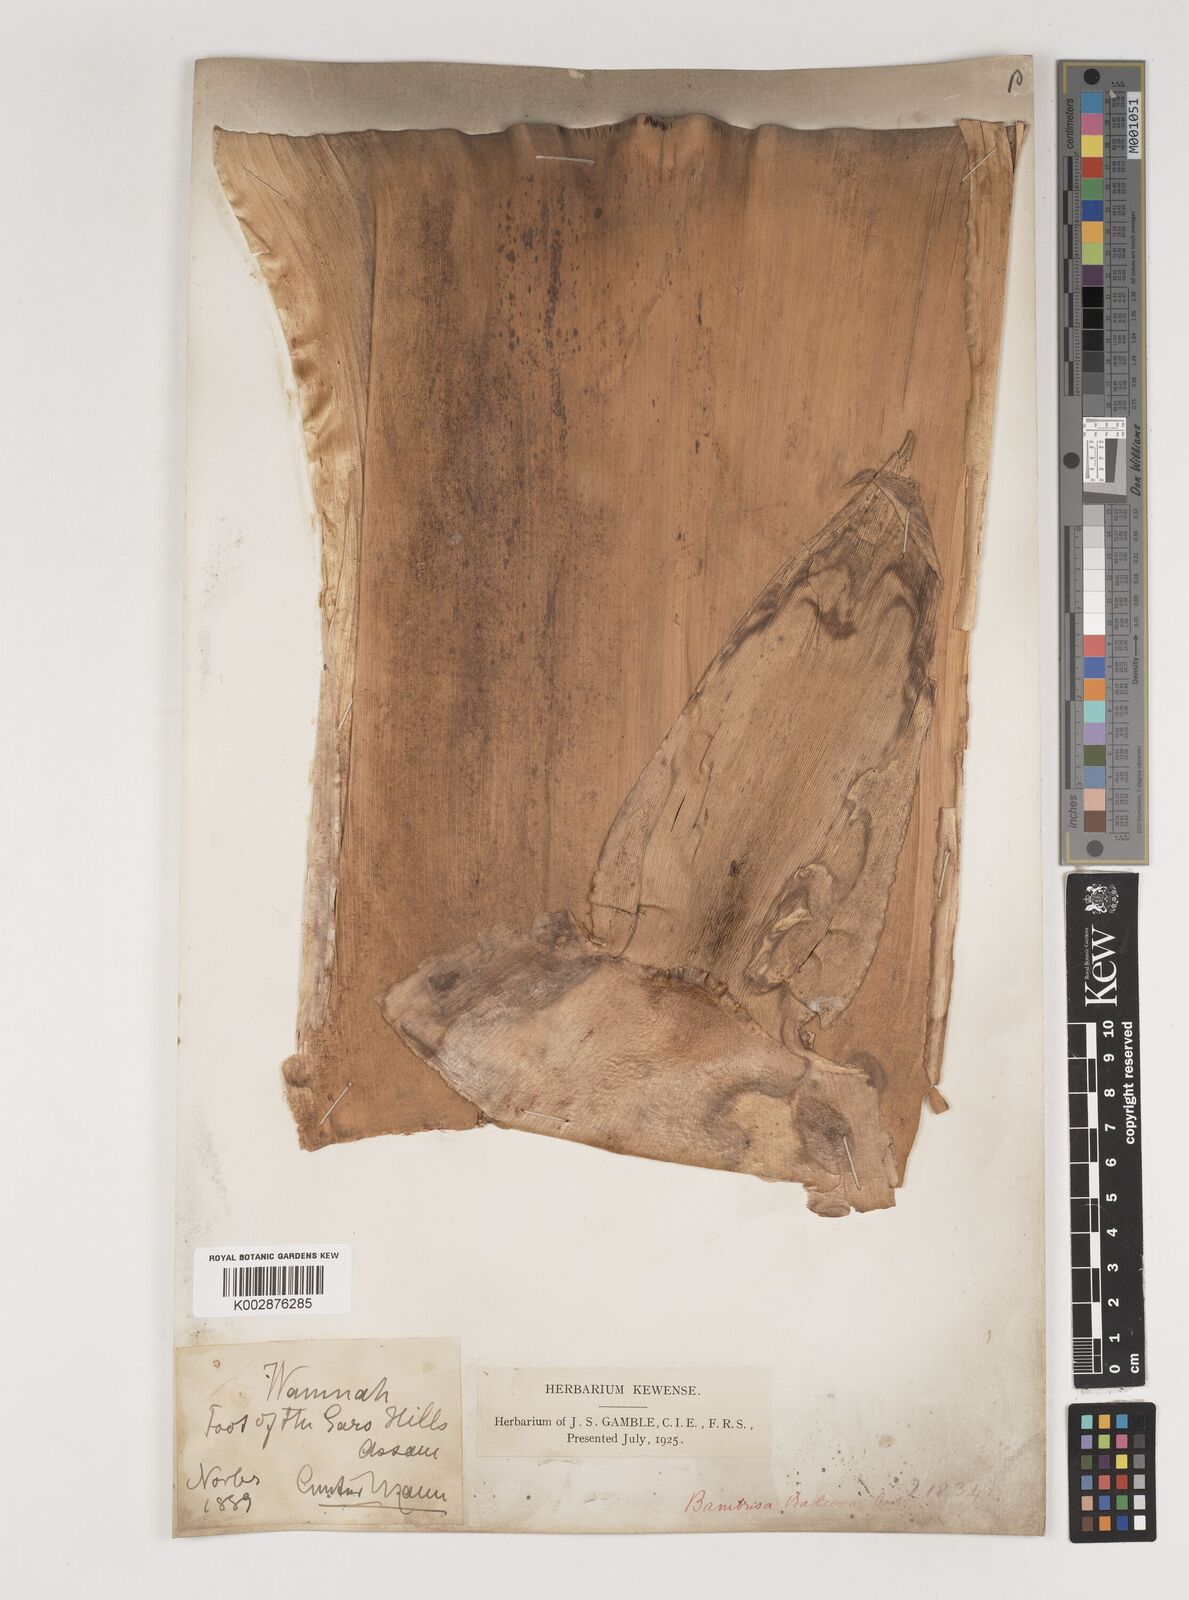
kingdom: Plantae
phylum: Tracheophyta
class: Liliopsida
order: Poales
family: Poaceae
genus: Bambusa
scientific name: Bambusa balcooa
